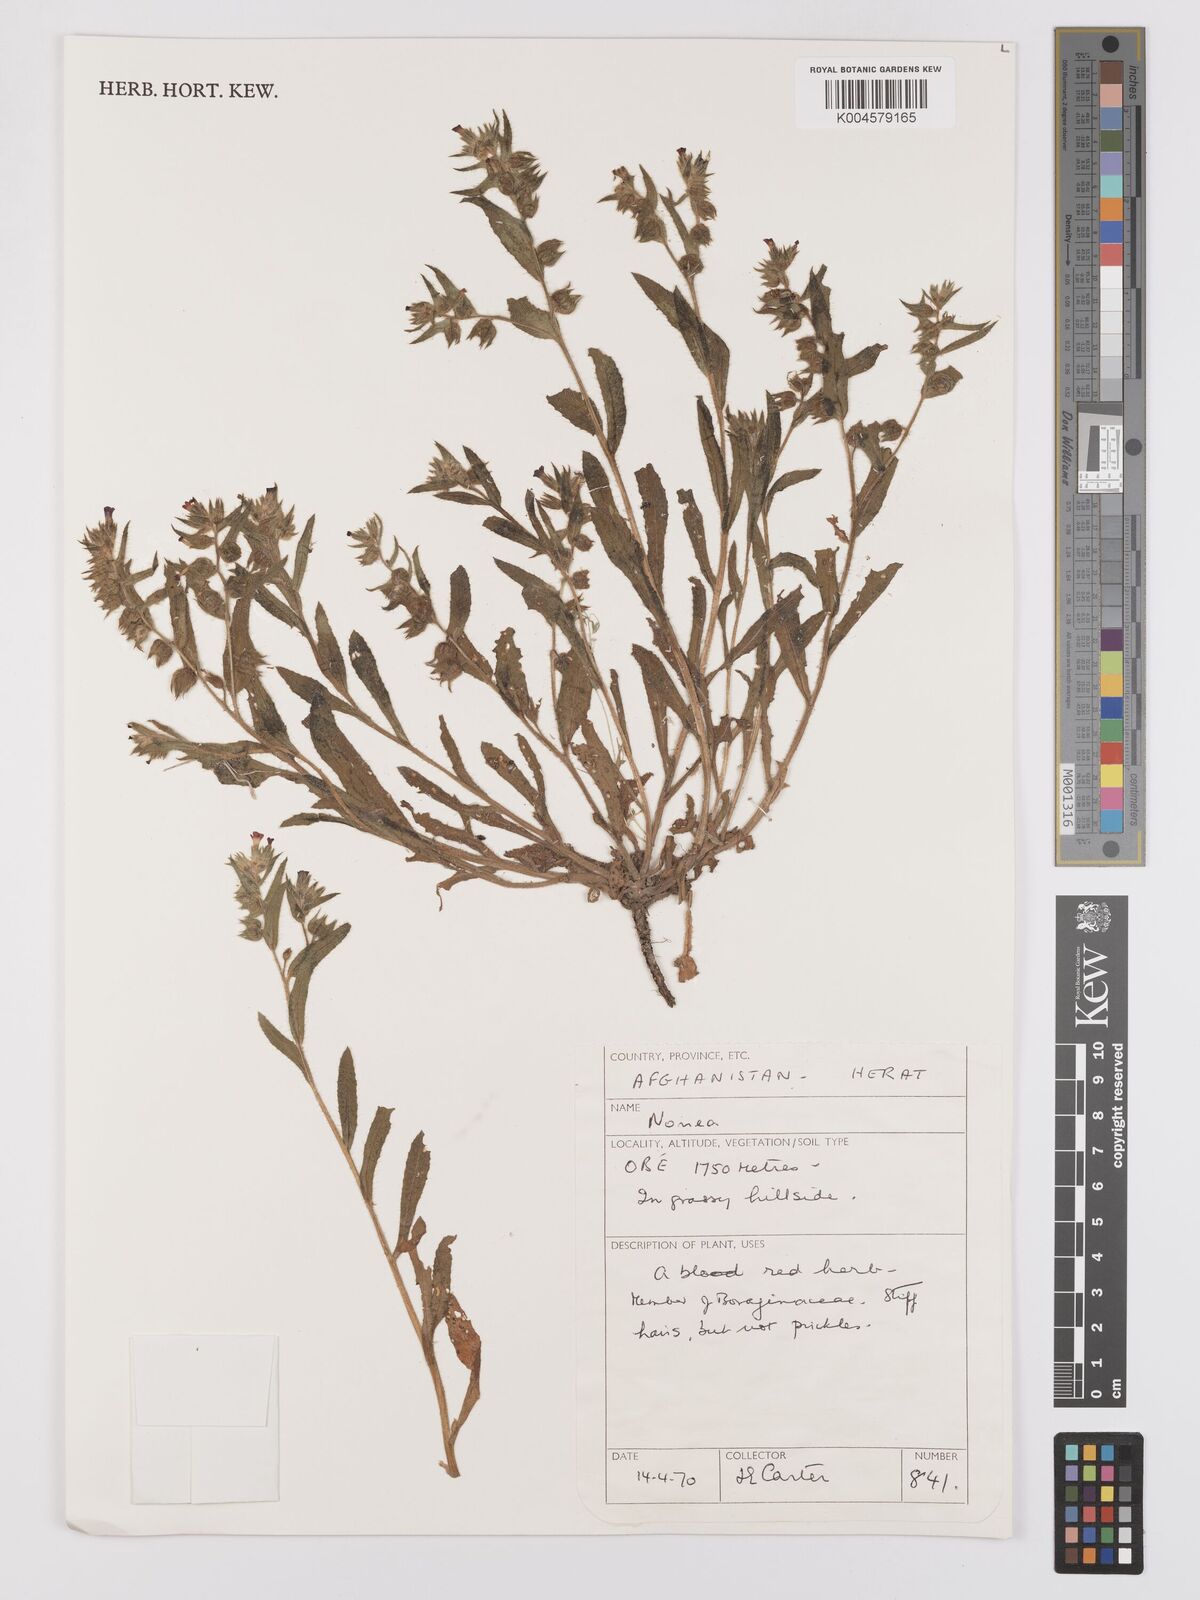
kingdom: Plantae
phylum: Tracheophyta
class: Magnoliopsida
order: Boraginales
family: Boraginaceae
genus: Nonea
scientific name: Nonea
